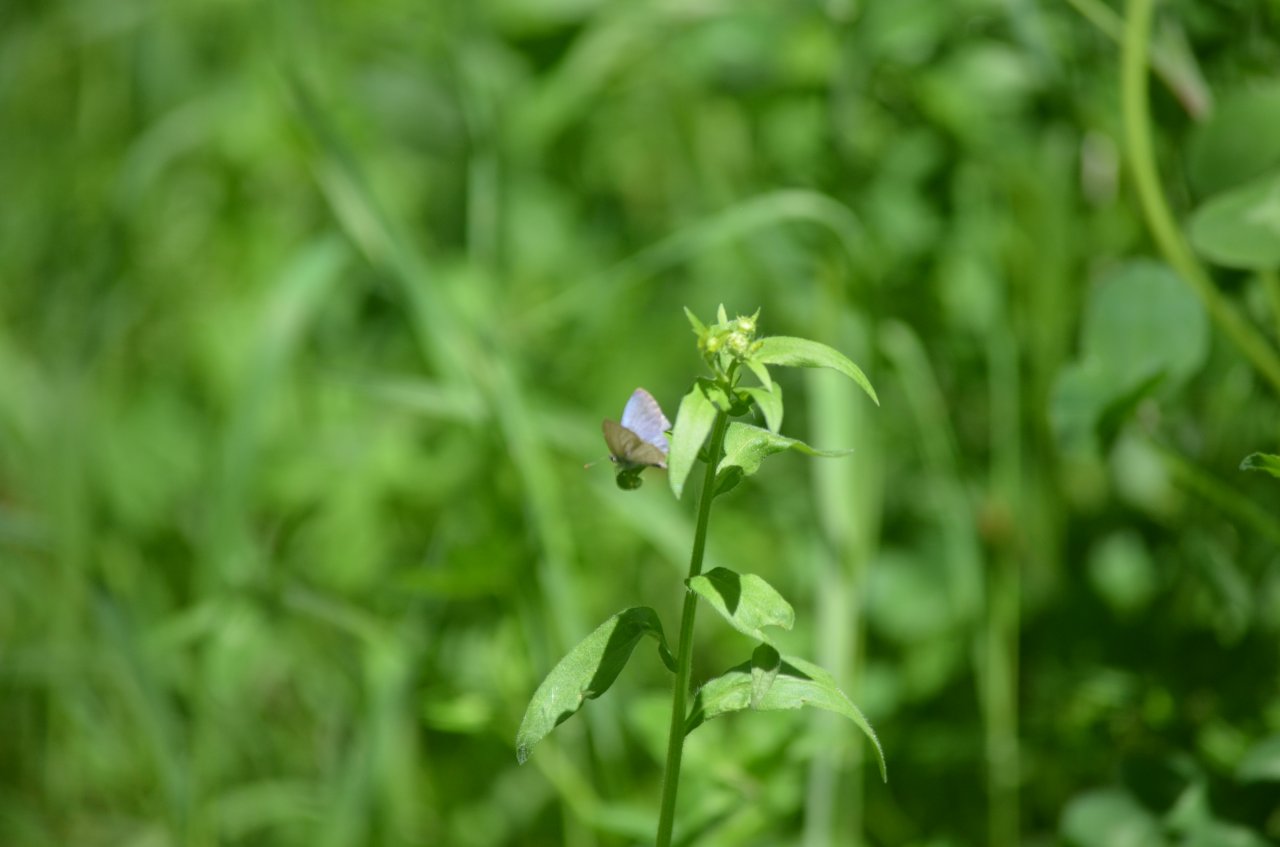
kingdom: Animalia
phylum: Arthropoda
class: Insecta
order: Lepidoptera
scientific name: Lepidoptera
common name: Butterflies
